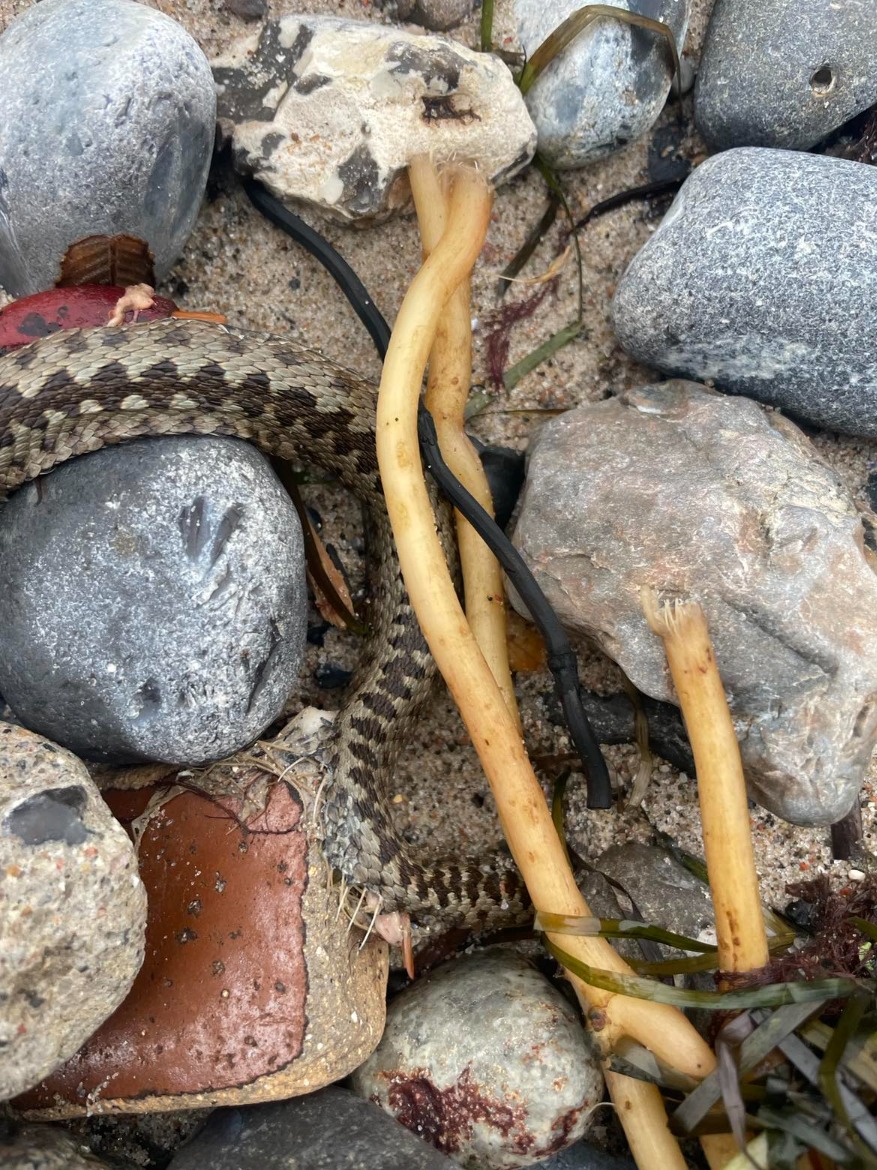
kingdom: Animalia
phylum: Chordata
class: Squamata
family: Viperidae
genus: Vipera
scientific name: Vipera berus
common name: Hugorm
